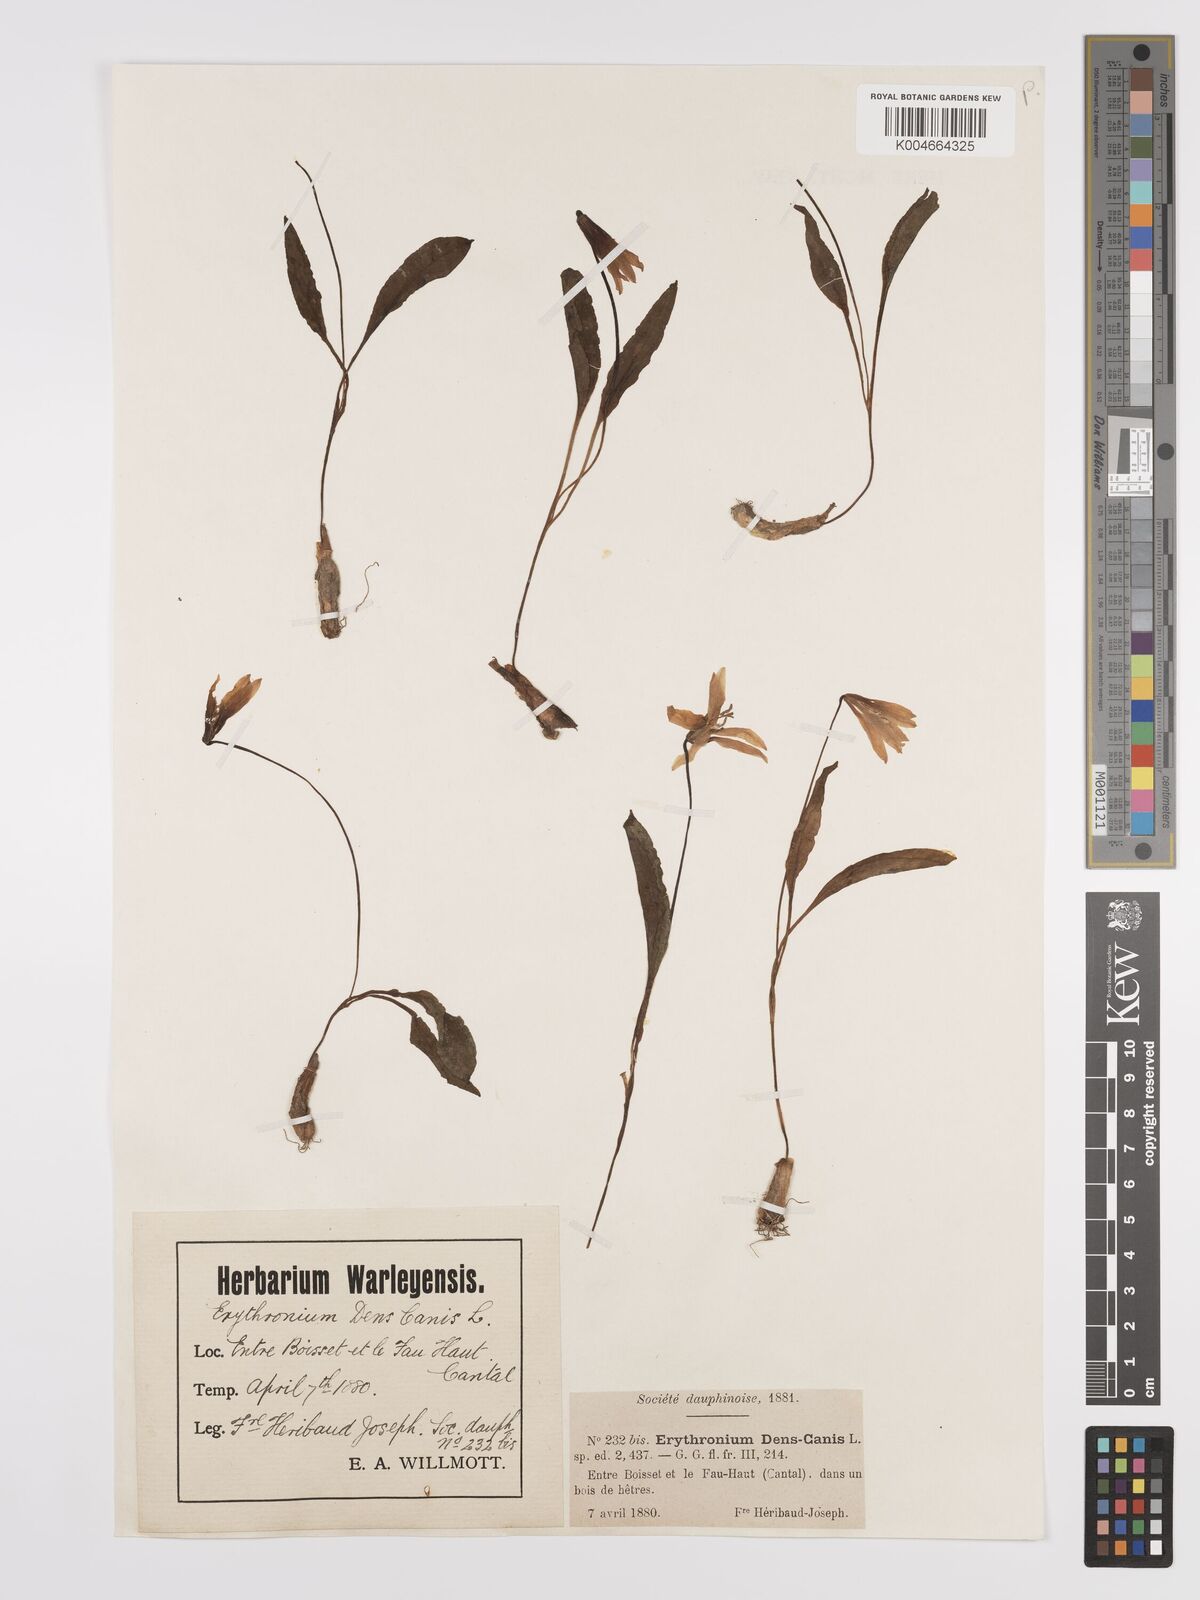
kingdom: Plantae
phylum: Tracheophyta
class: Liliopsida
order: Liliales
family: Liliaceae
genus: Erythronium
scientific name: Erythronium dens-canis
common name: Dog's-tooth-violet
